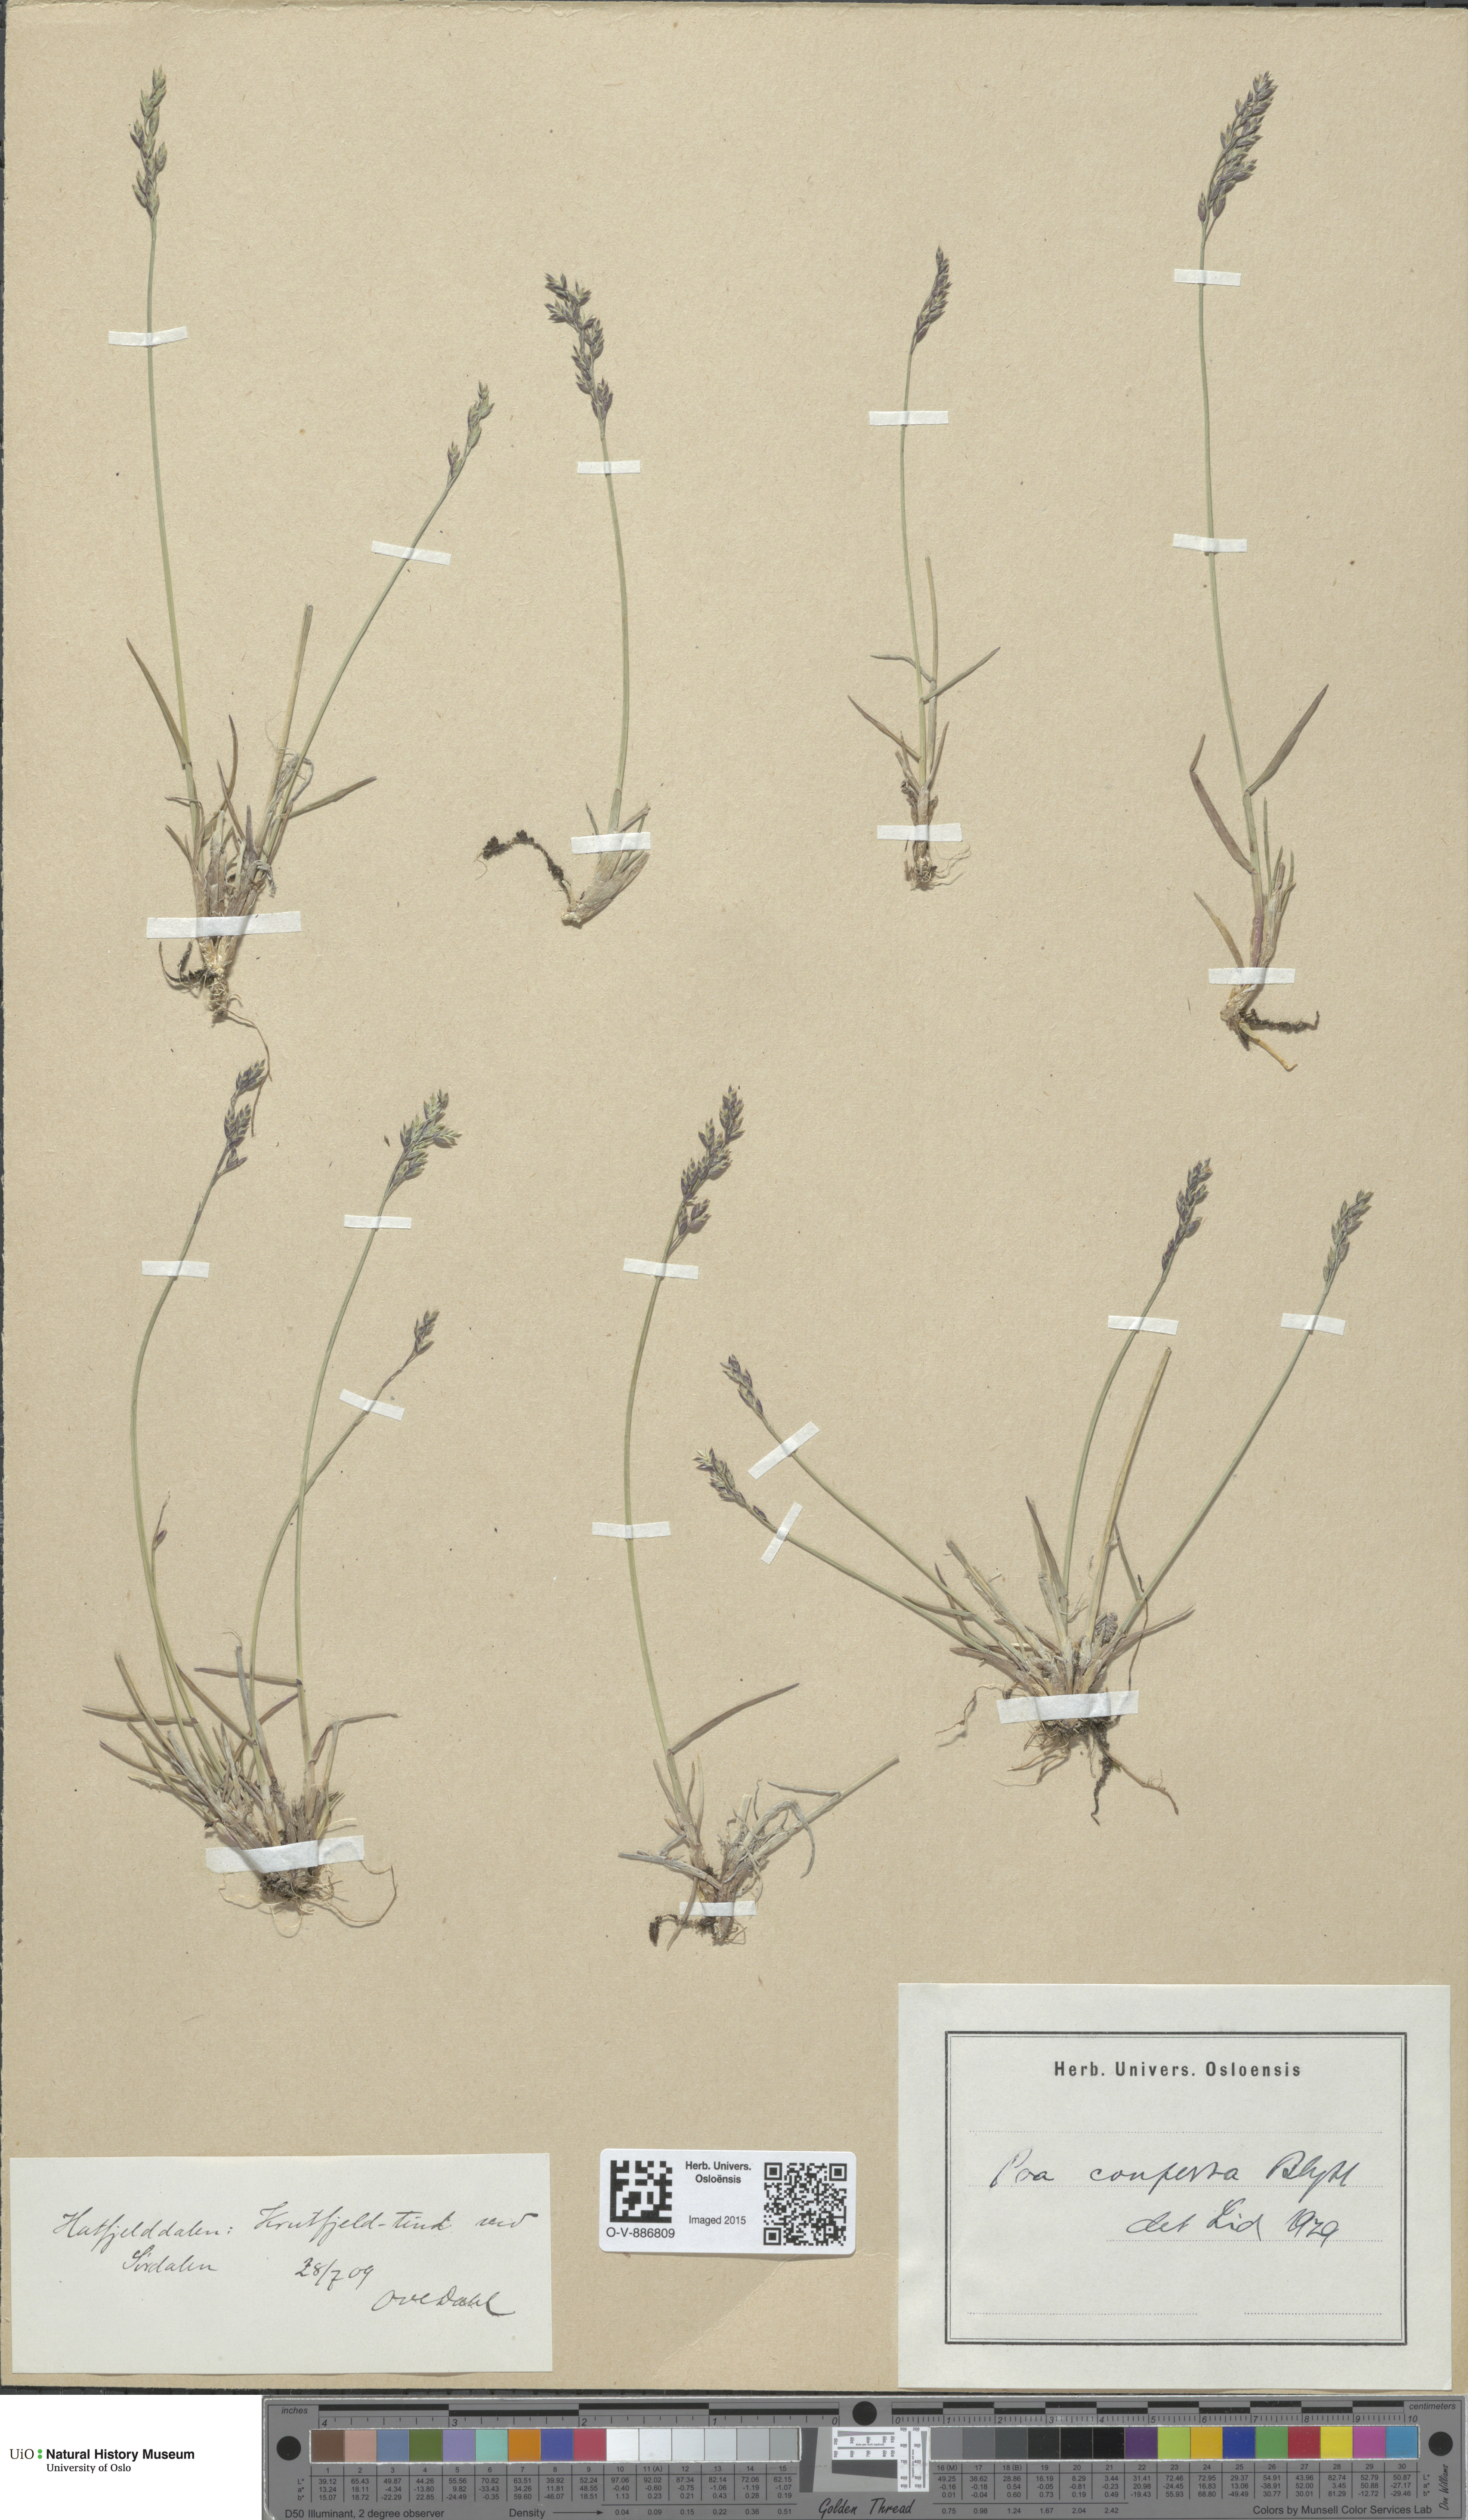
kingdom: Plantae
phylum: Tracheophyta
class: Liliopsida
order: Poales
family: Poaceae
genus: Poa
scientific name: Poa glauca
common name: Glaucous bluegrass
